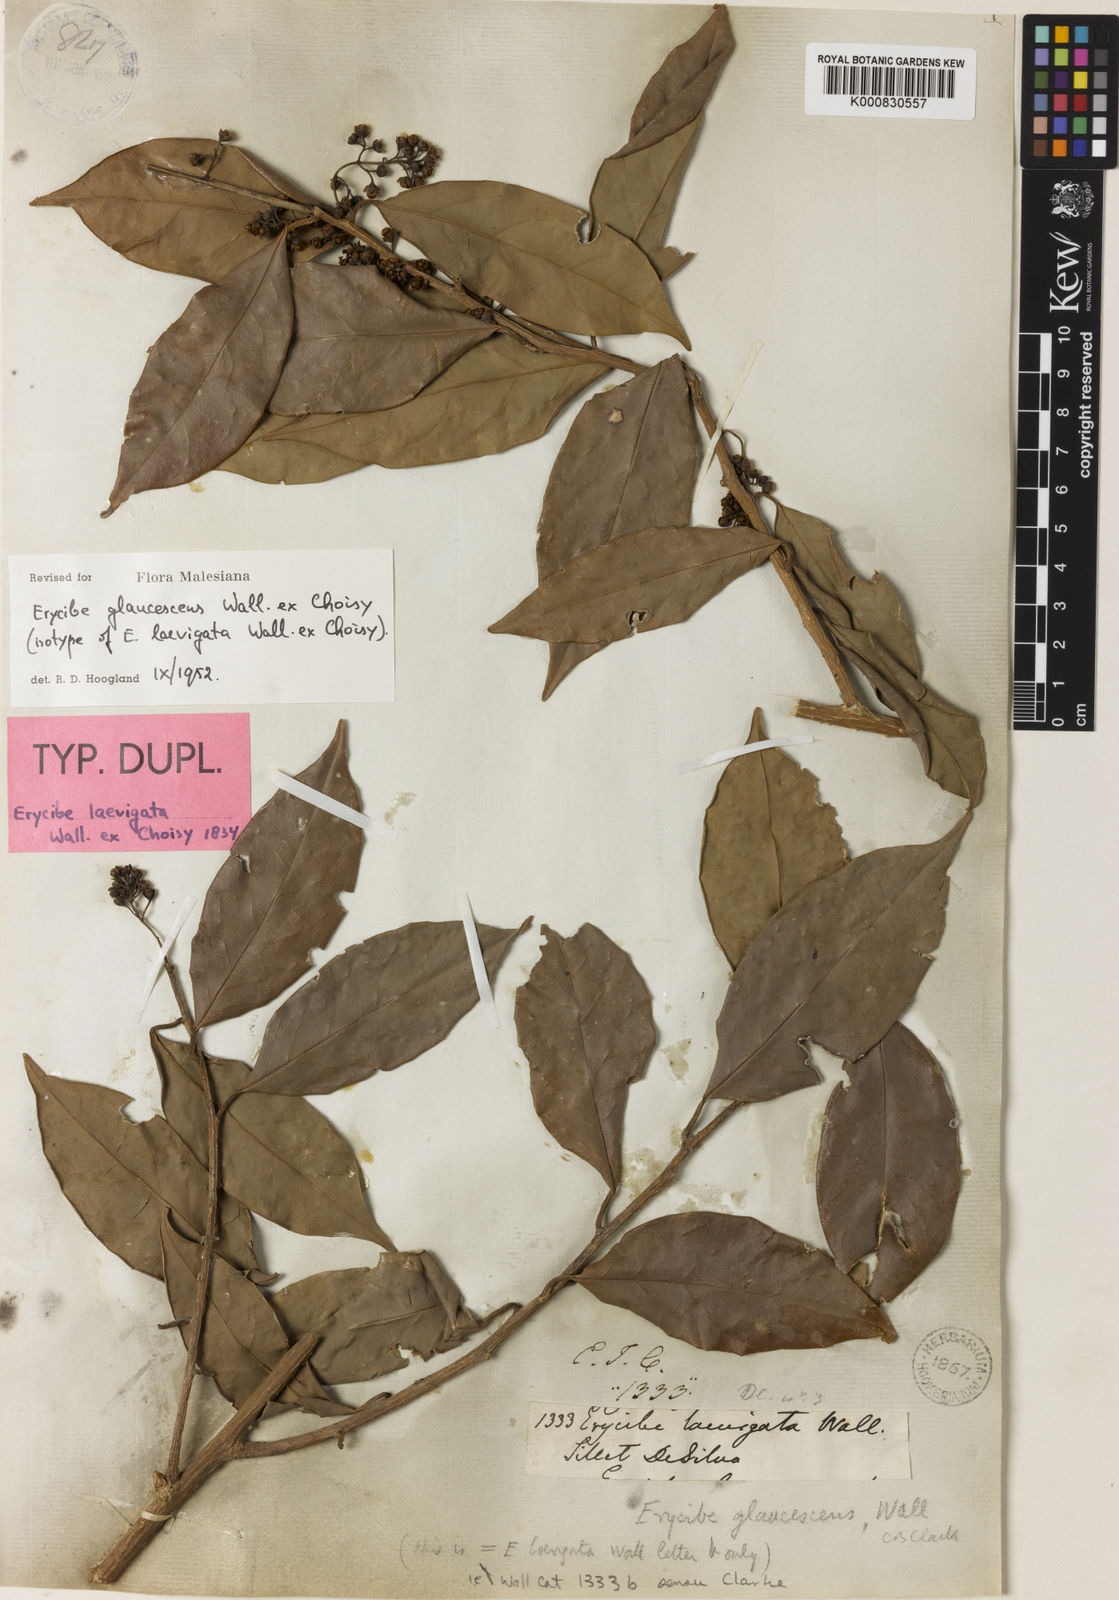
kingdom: Plantae
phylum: Tracheophyta
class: Magnoliopsida
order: Solanales
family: Convolvulaceae
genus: Erycibe
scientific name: Erycibe
